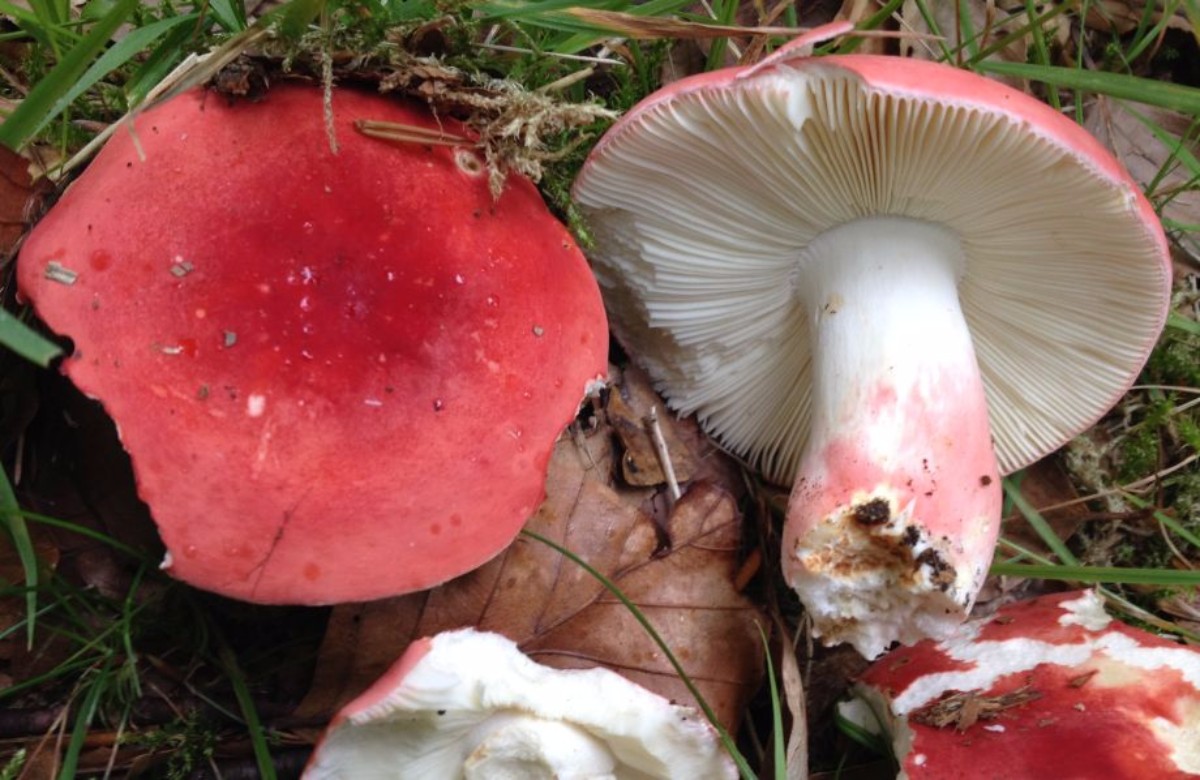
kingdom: Fungi
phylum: Basidiomycota
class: Agaricomycetes
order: Russulales
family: Russulaceae
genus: Russula
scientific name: Russula rosea
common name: fastkødet skørhat
